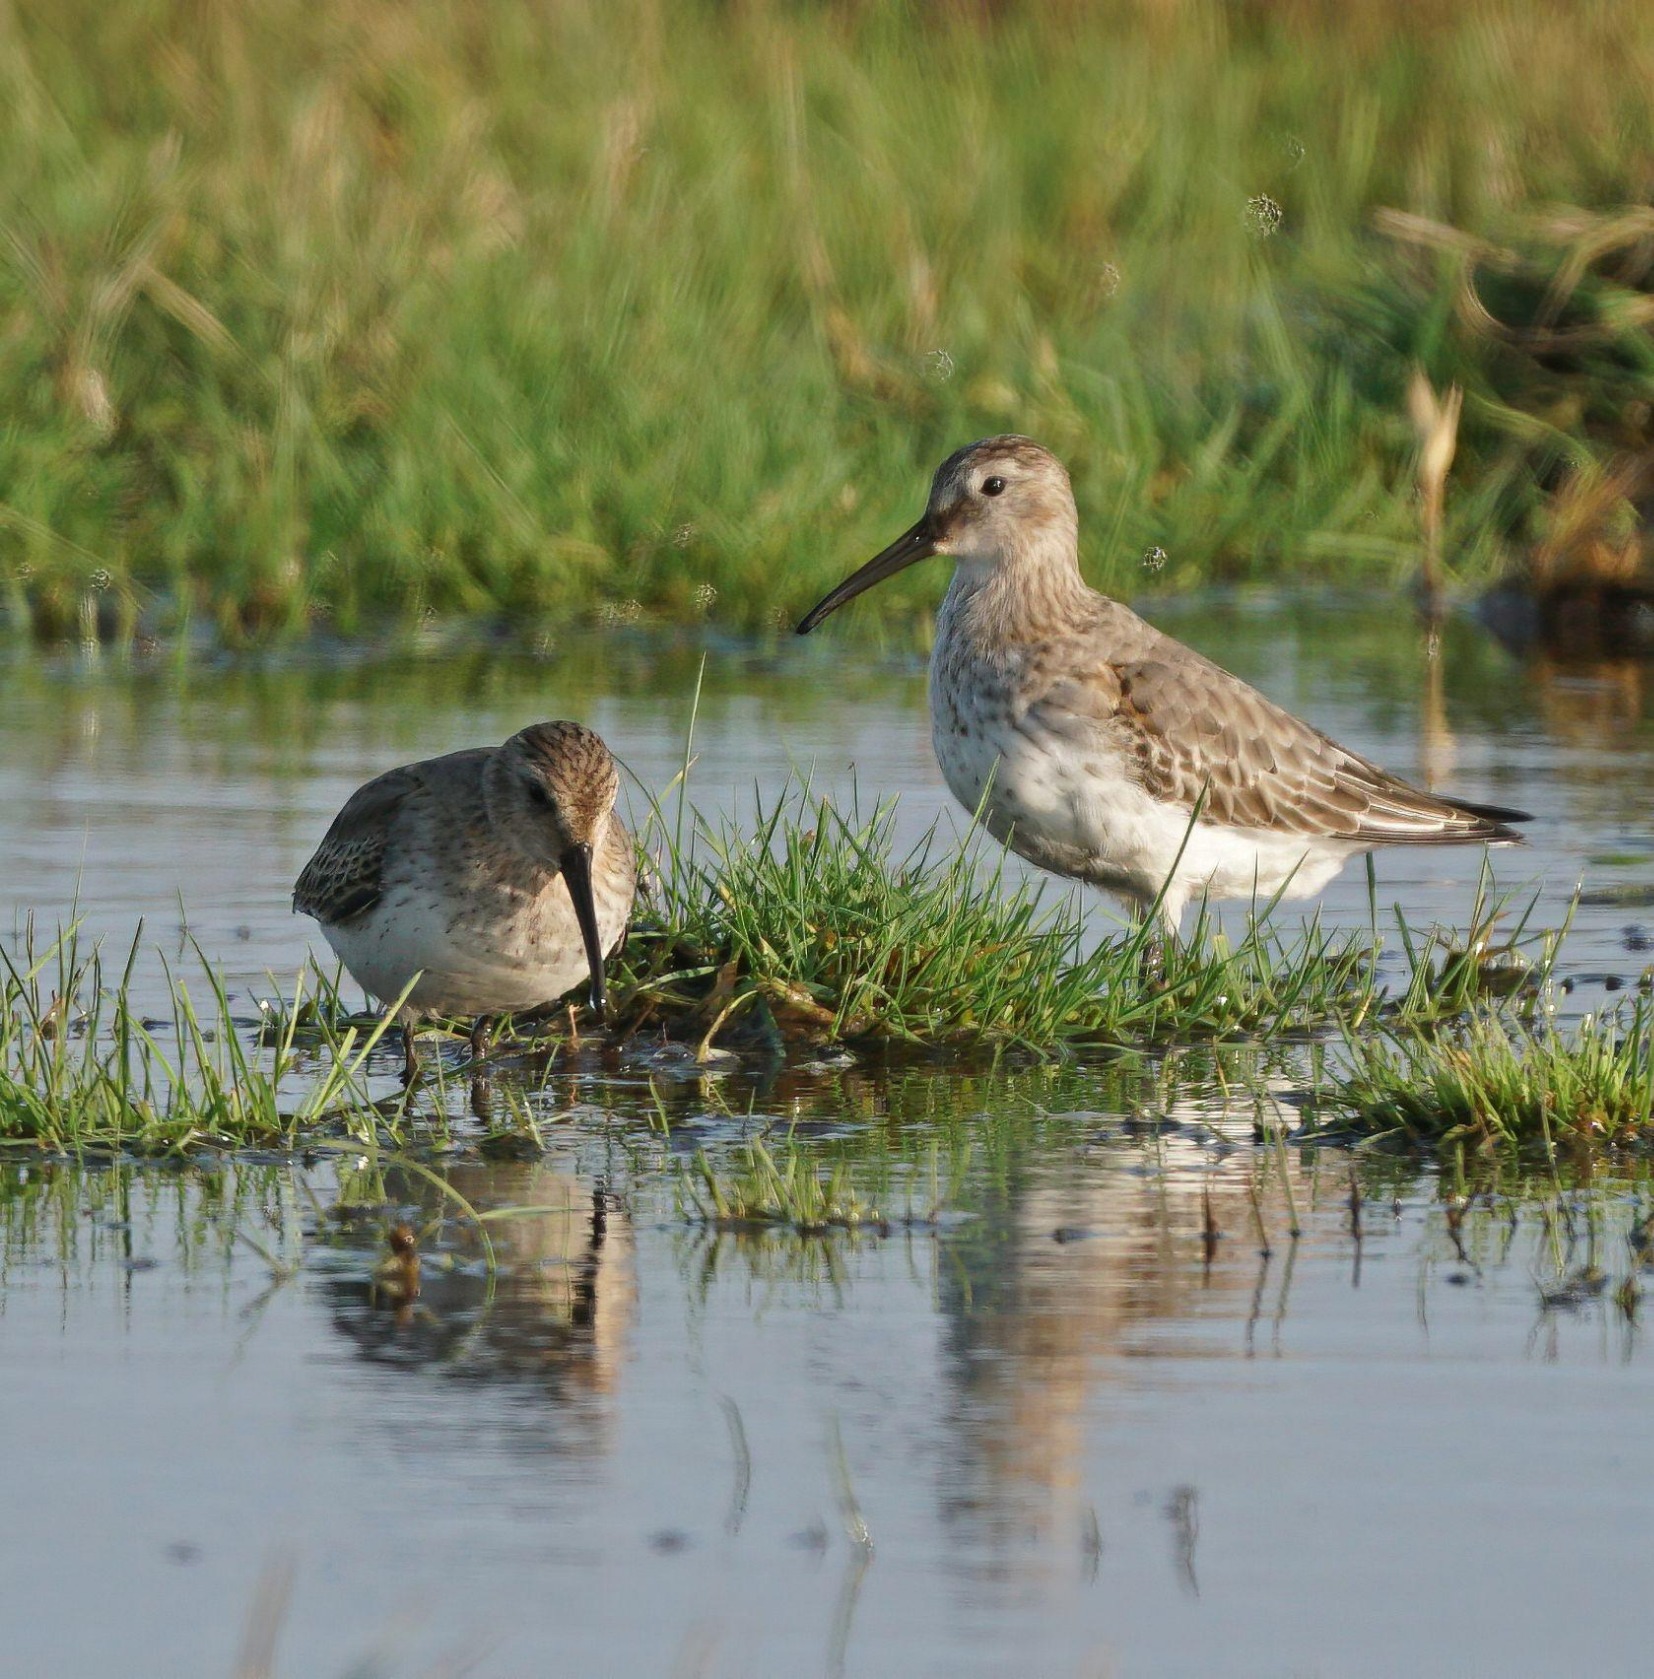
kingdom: Animalia
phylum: Chordata
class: Aves
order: Charadriiformes
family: Scolopacidae
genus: Calidris
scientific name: Calidris alpina
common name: Almindelig ryle
